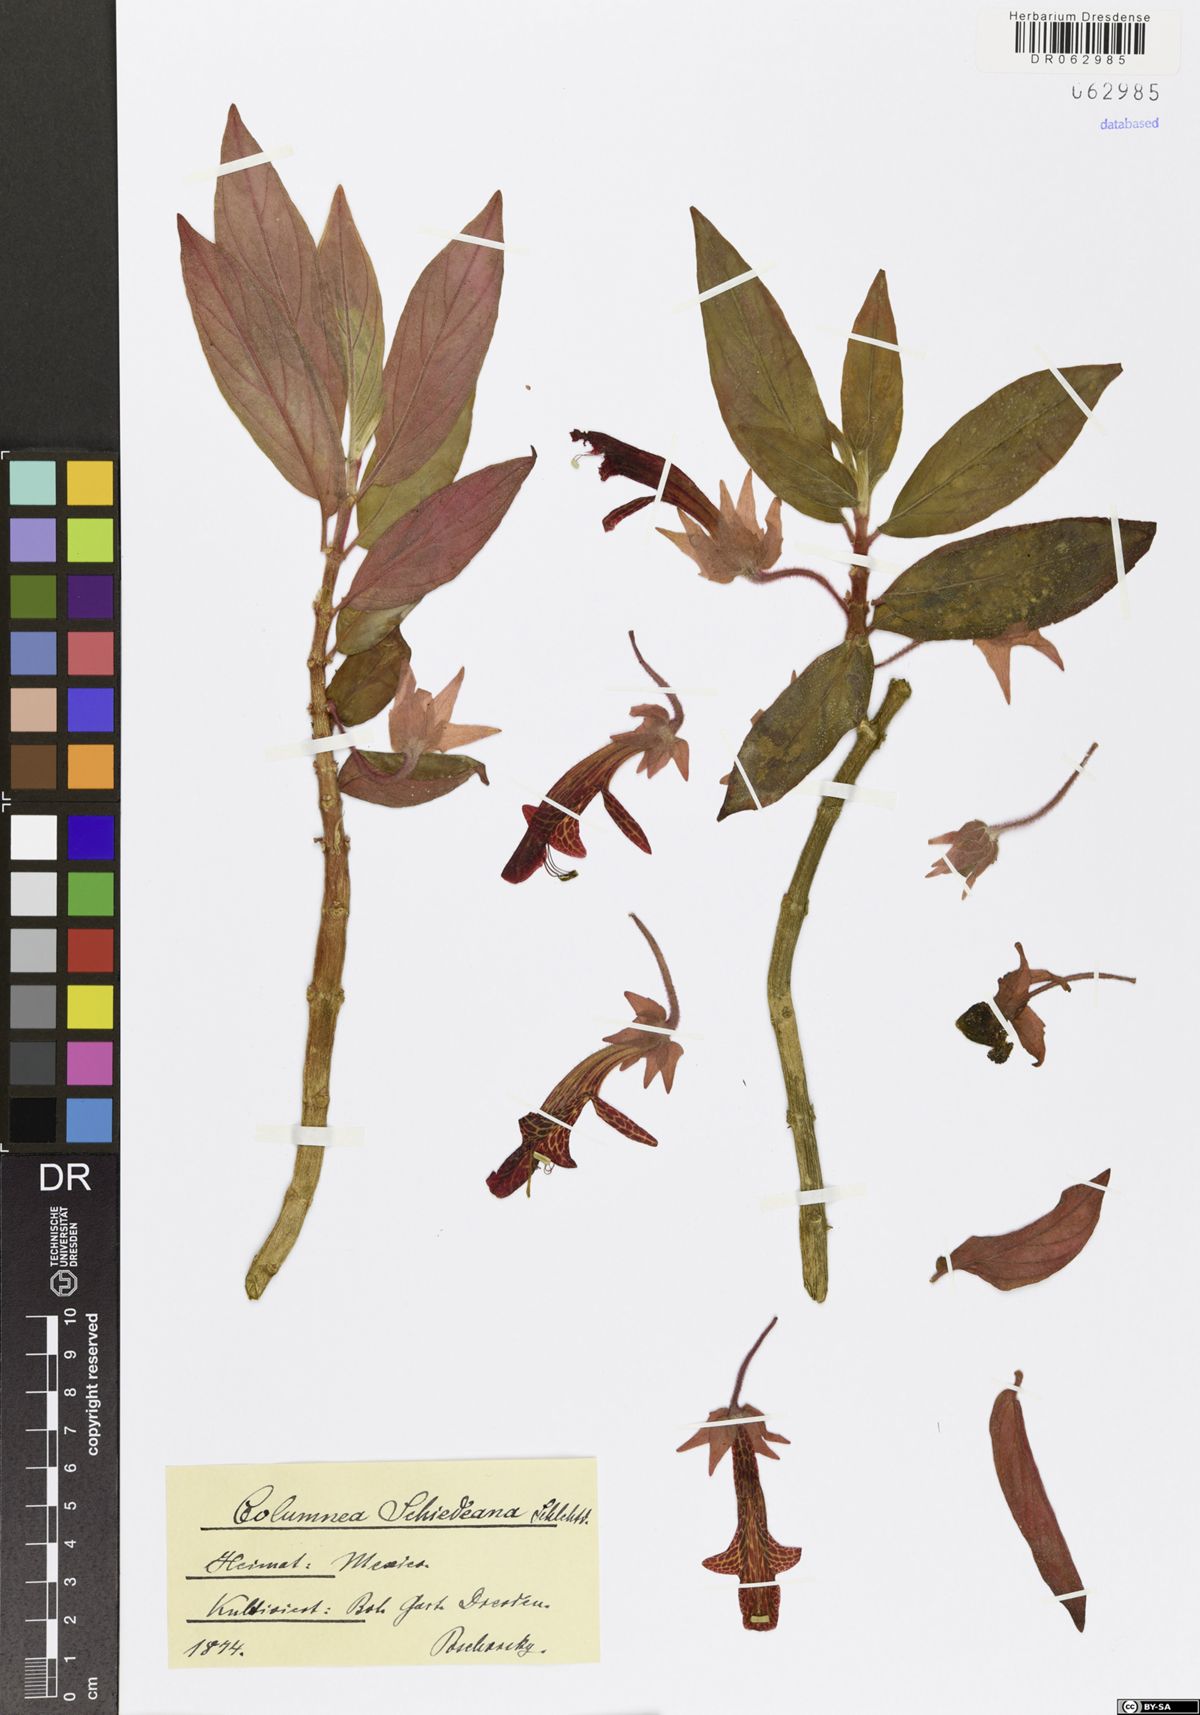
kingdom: Plantae
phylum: Tracheophyta
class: Magnoliopsida
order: Lamiales
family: Gesneriaceae
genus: Columnea
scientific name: Columnea schiedeana
